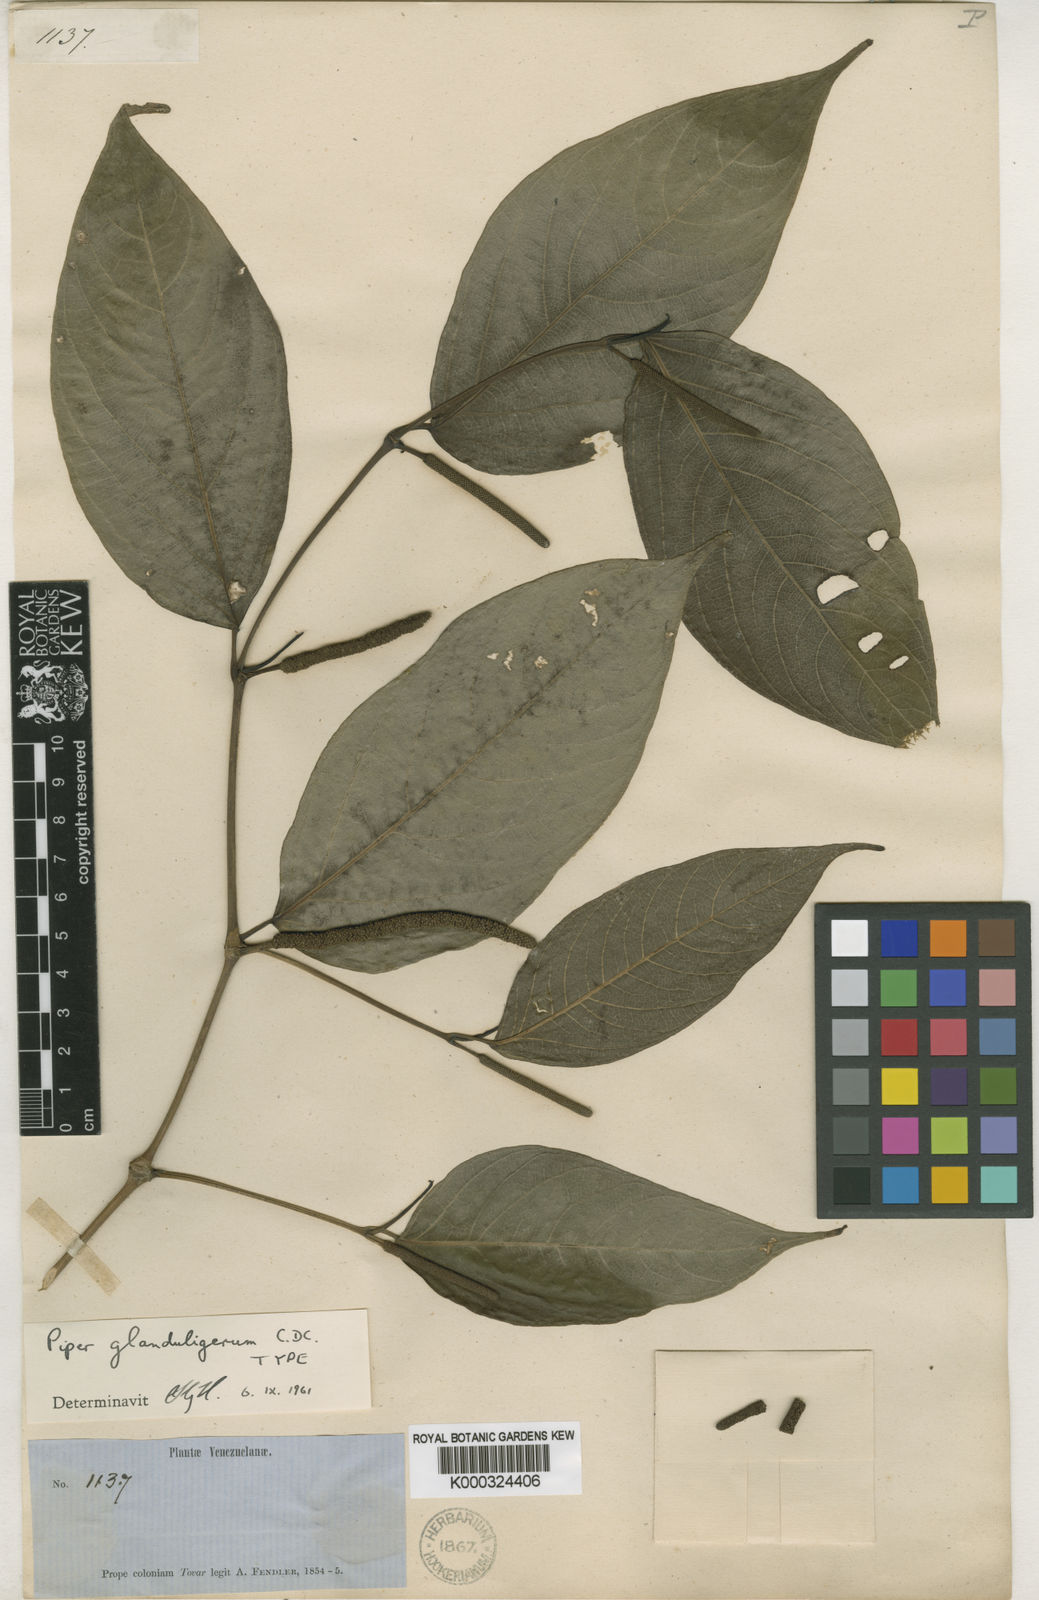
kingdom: Plantae
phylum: Tracheophyta
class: Magnoliopsida
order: Piperales
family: Piperaceae
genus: Piper
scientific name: Piper schiedeanum
